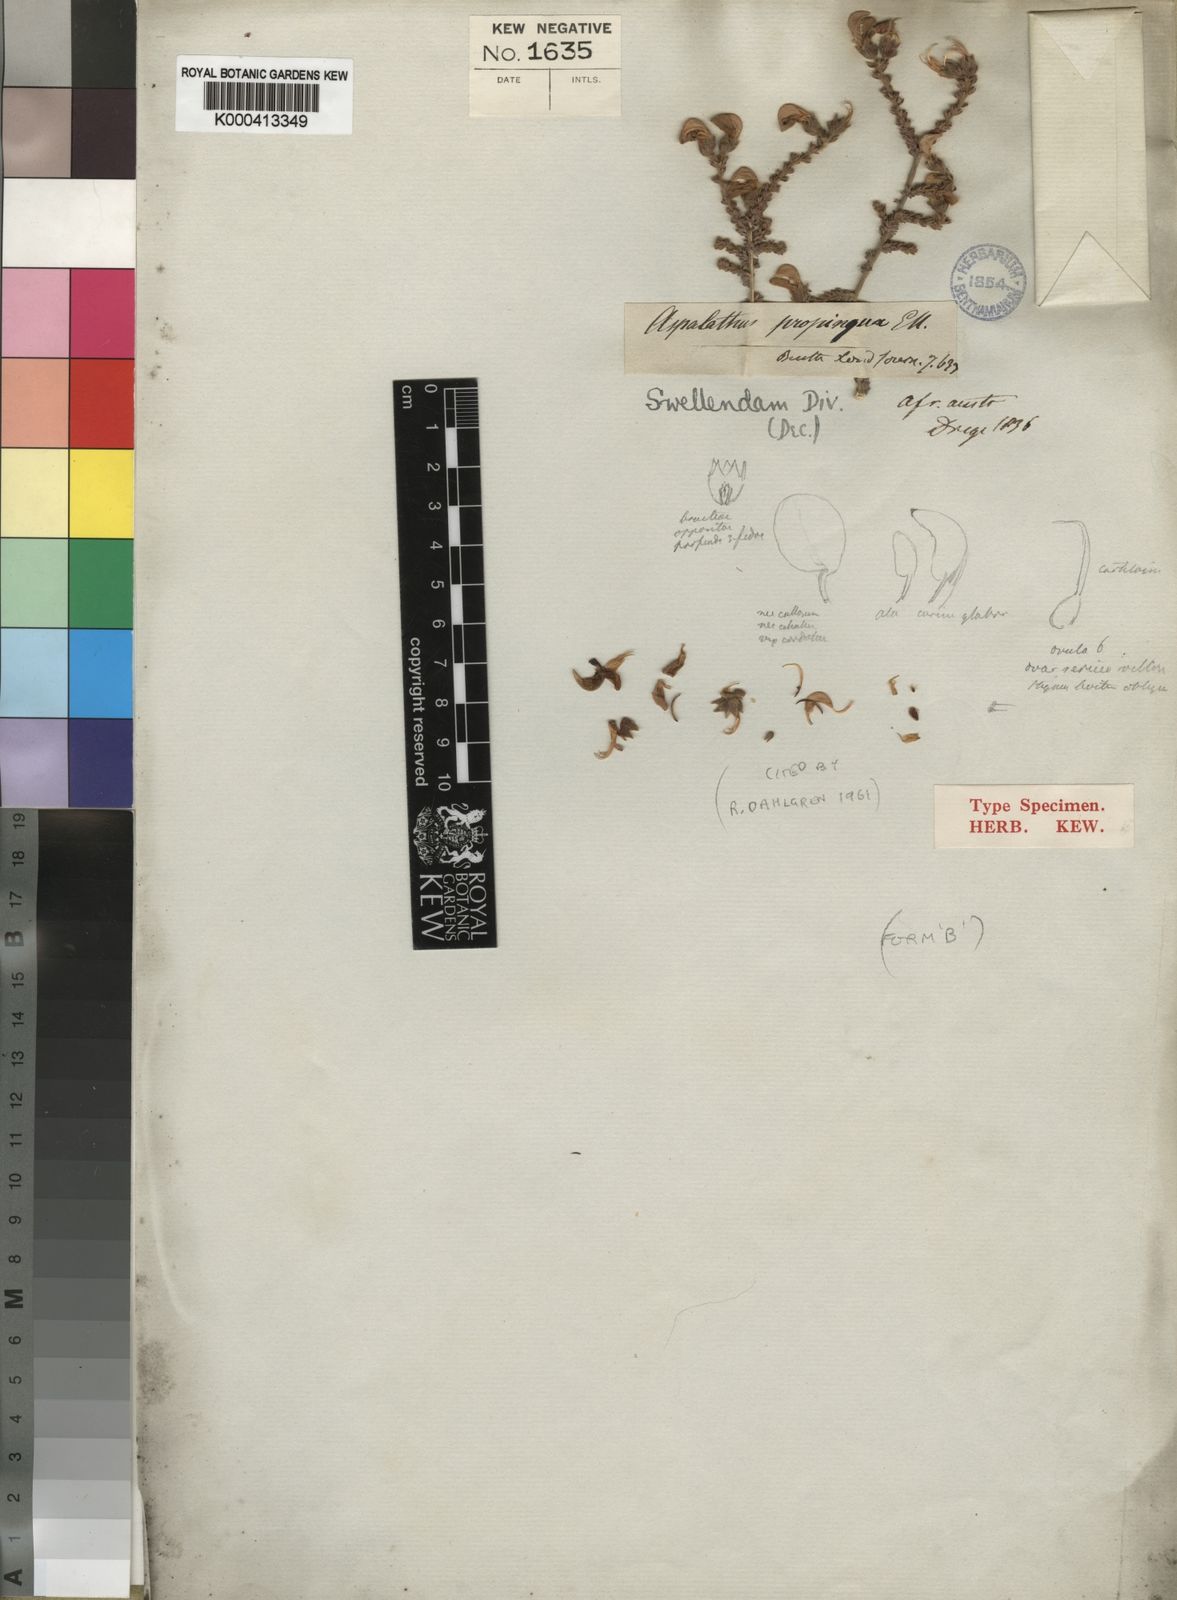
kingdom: Plantae
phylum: Tracheophyta
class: Magnoliopsida
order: Fabales
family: Fabaceae
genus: Aspalathus
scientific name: Aspalathus triquetra
